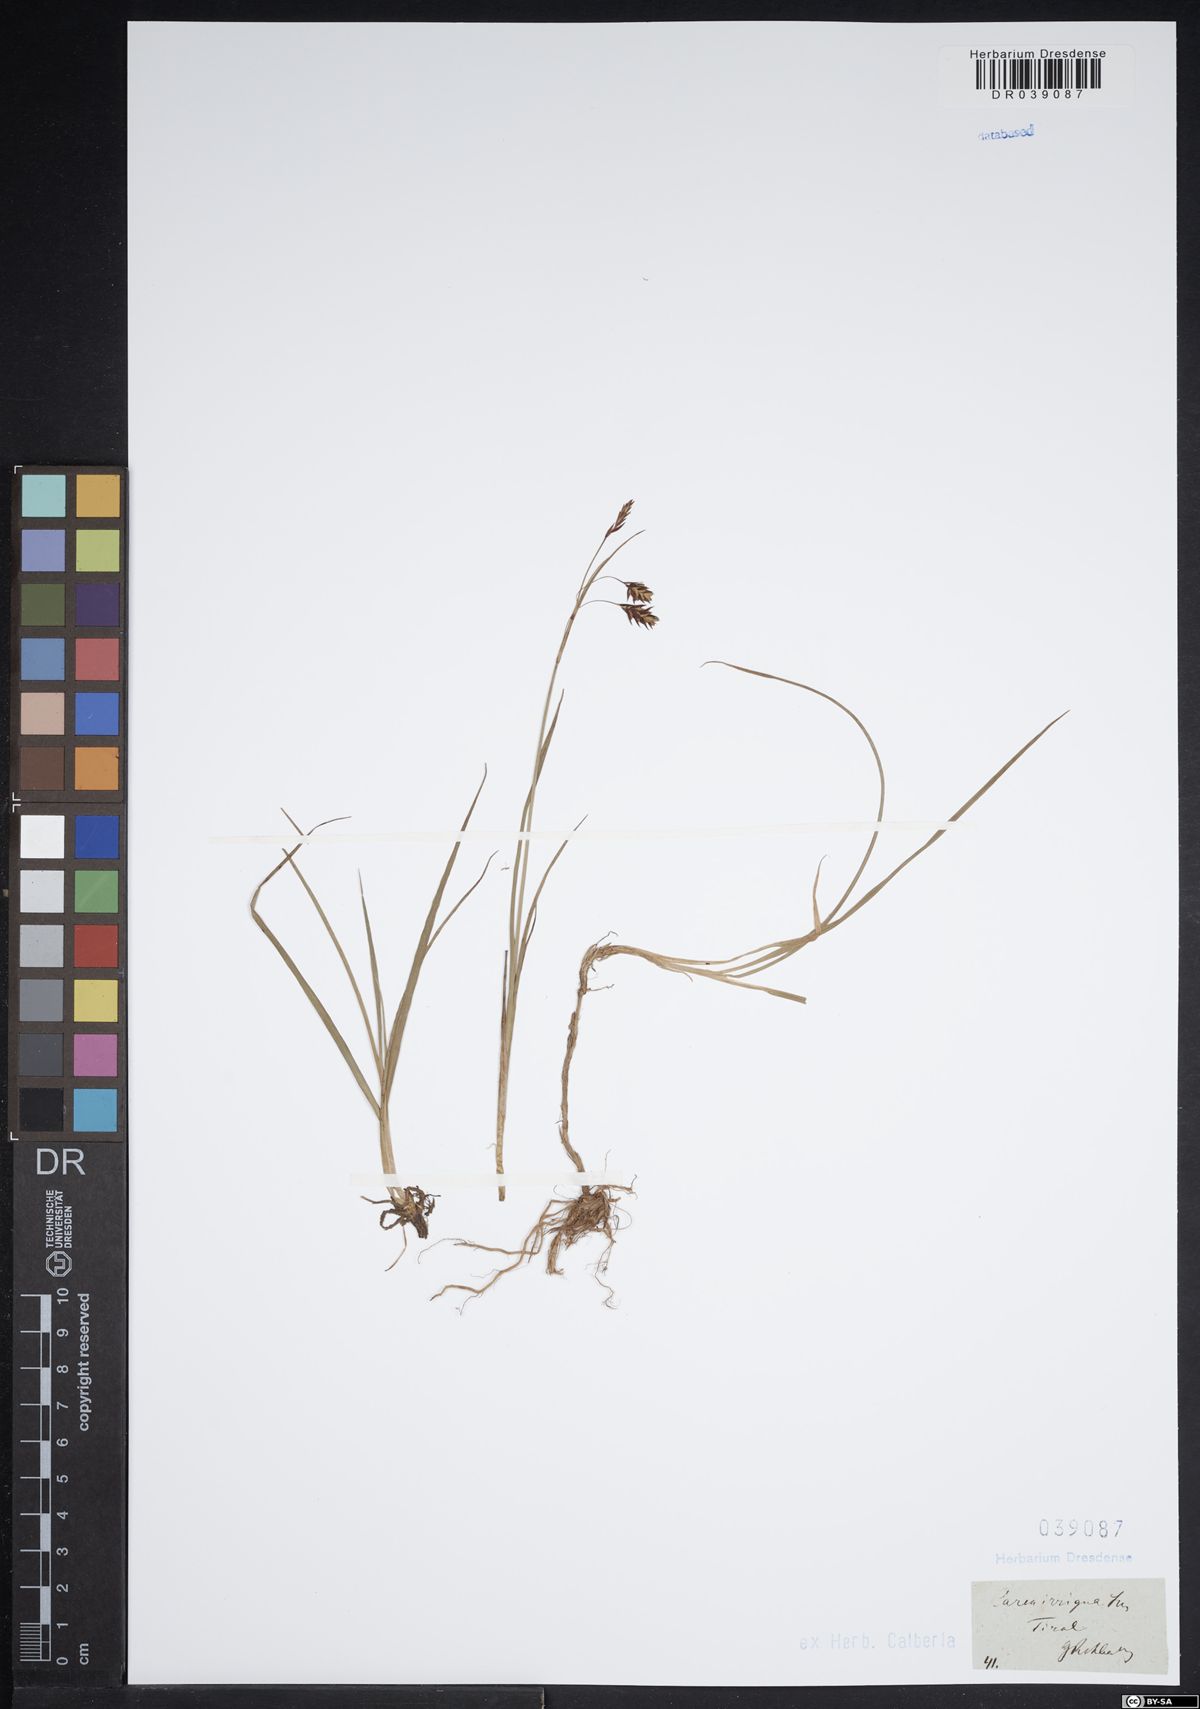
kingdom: Plantae
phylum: Tracheophyta
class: Liliopsida
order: Poales
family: Cyperaceae
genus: Carex
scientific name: Carex magellanica
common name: Bog sedge
